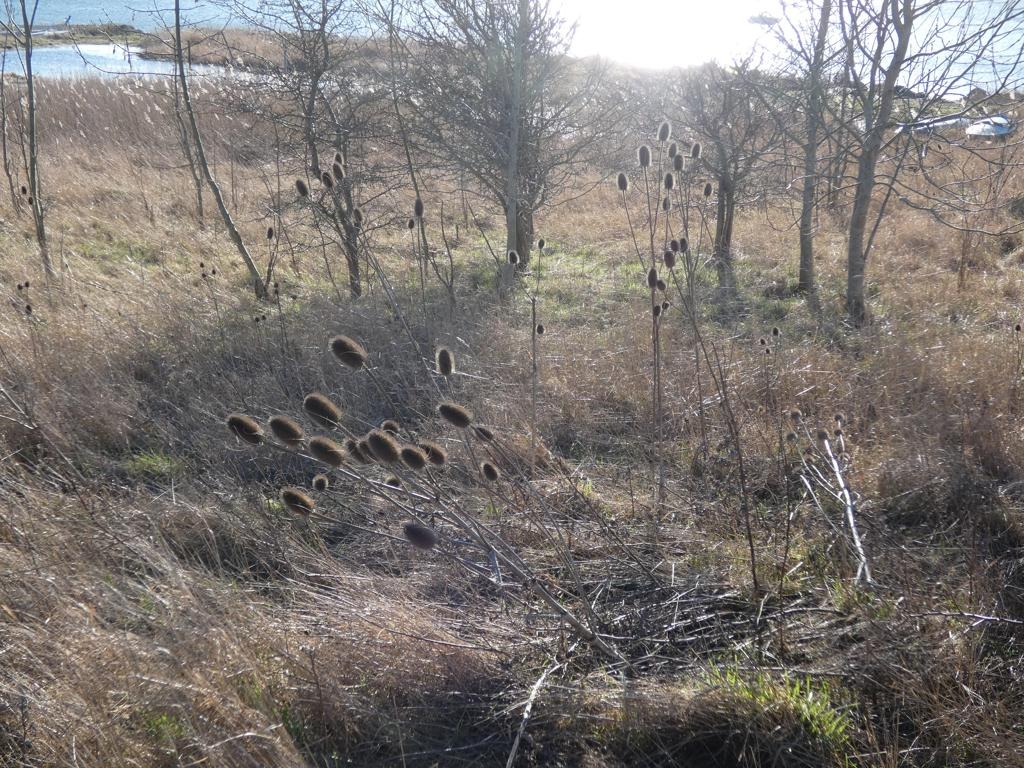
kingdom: Plantae
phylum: Tracheophyta
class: Magnoliopsida
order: Dipsacales
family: Caprifoliaceae
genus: Dipsacus
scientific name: Dipsacus fullonum
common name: Gærde-kartebolle
